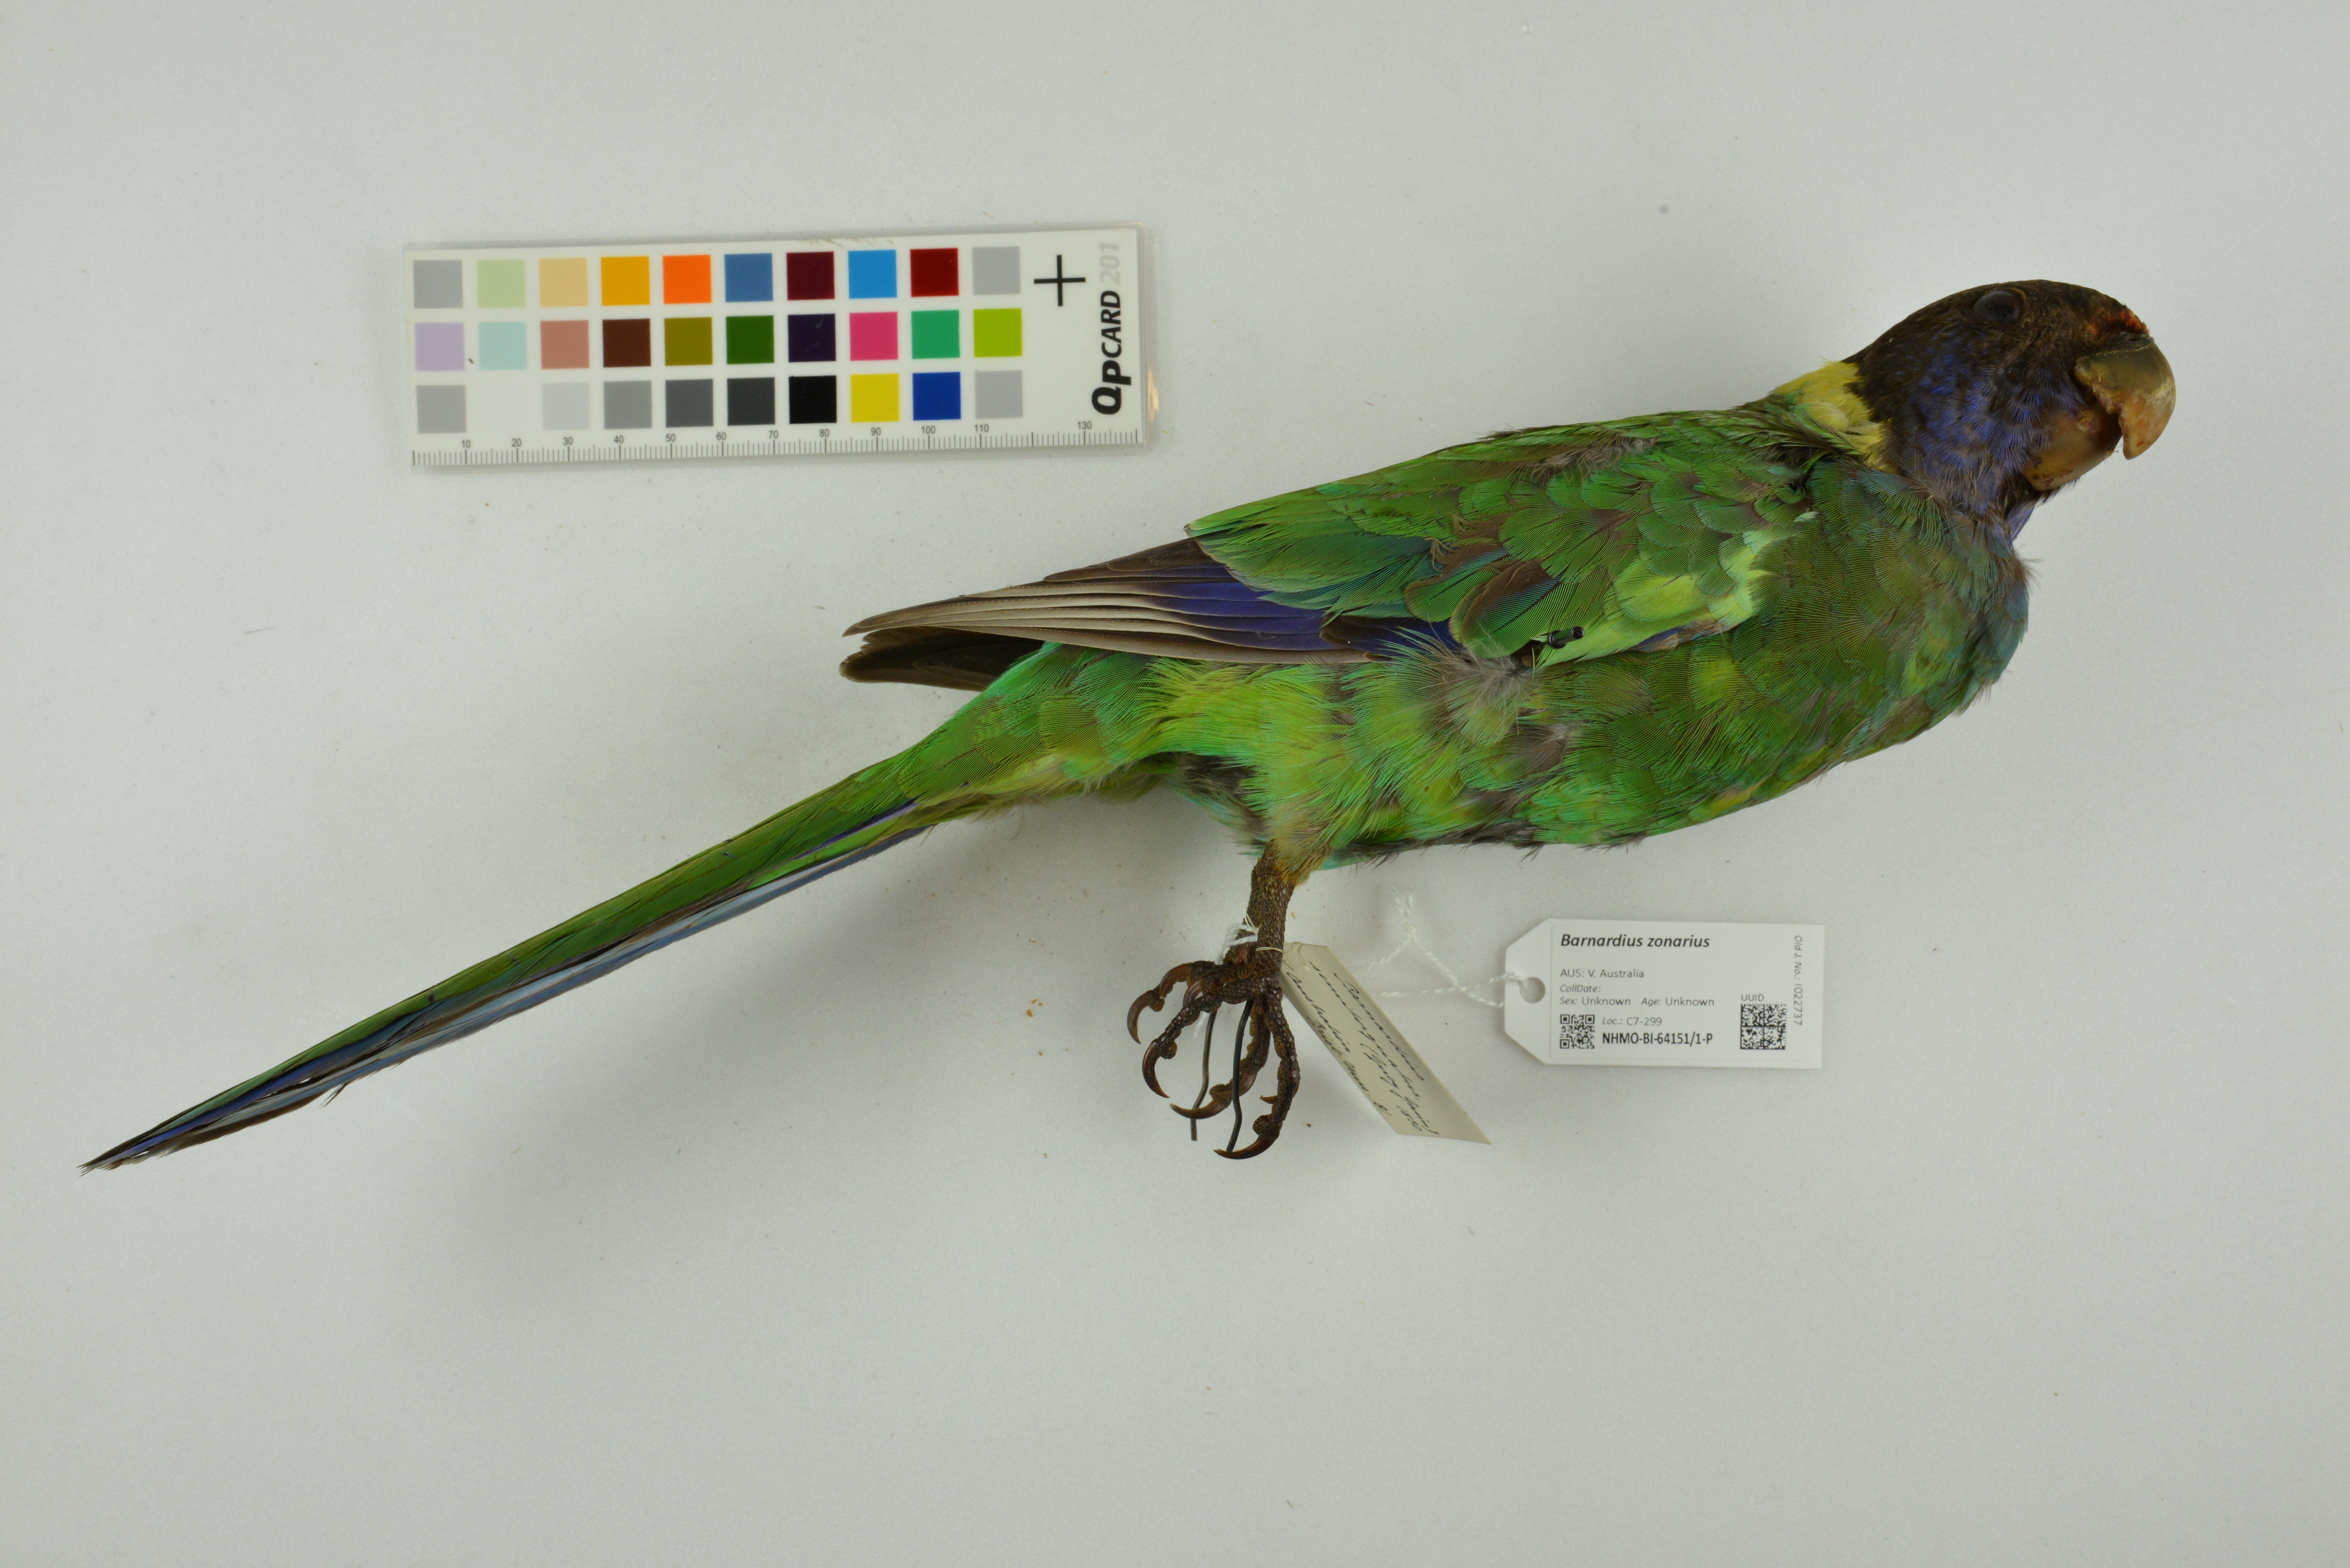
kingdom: Animalia
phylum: Chordata
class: Aves
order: Psittaciformes
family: Psittacidae
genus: Barnardius
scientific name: Barnardius zonarius
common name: Australian ringneck
